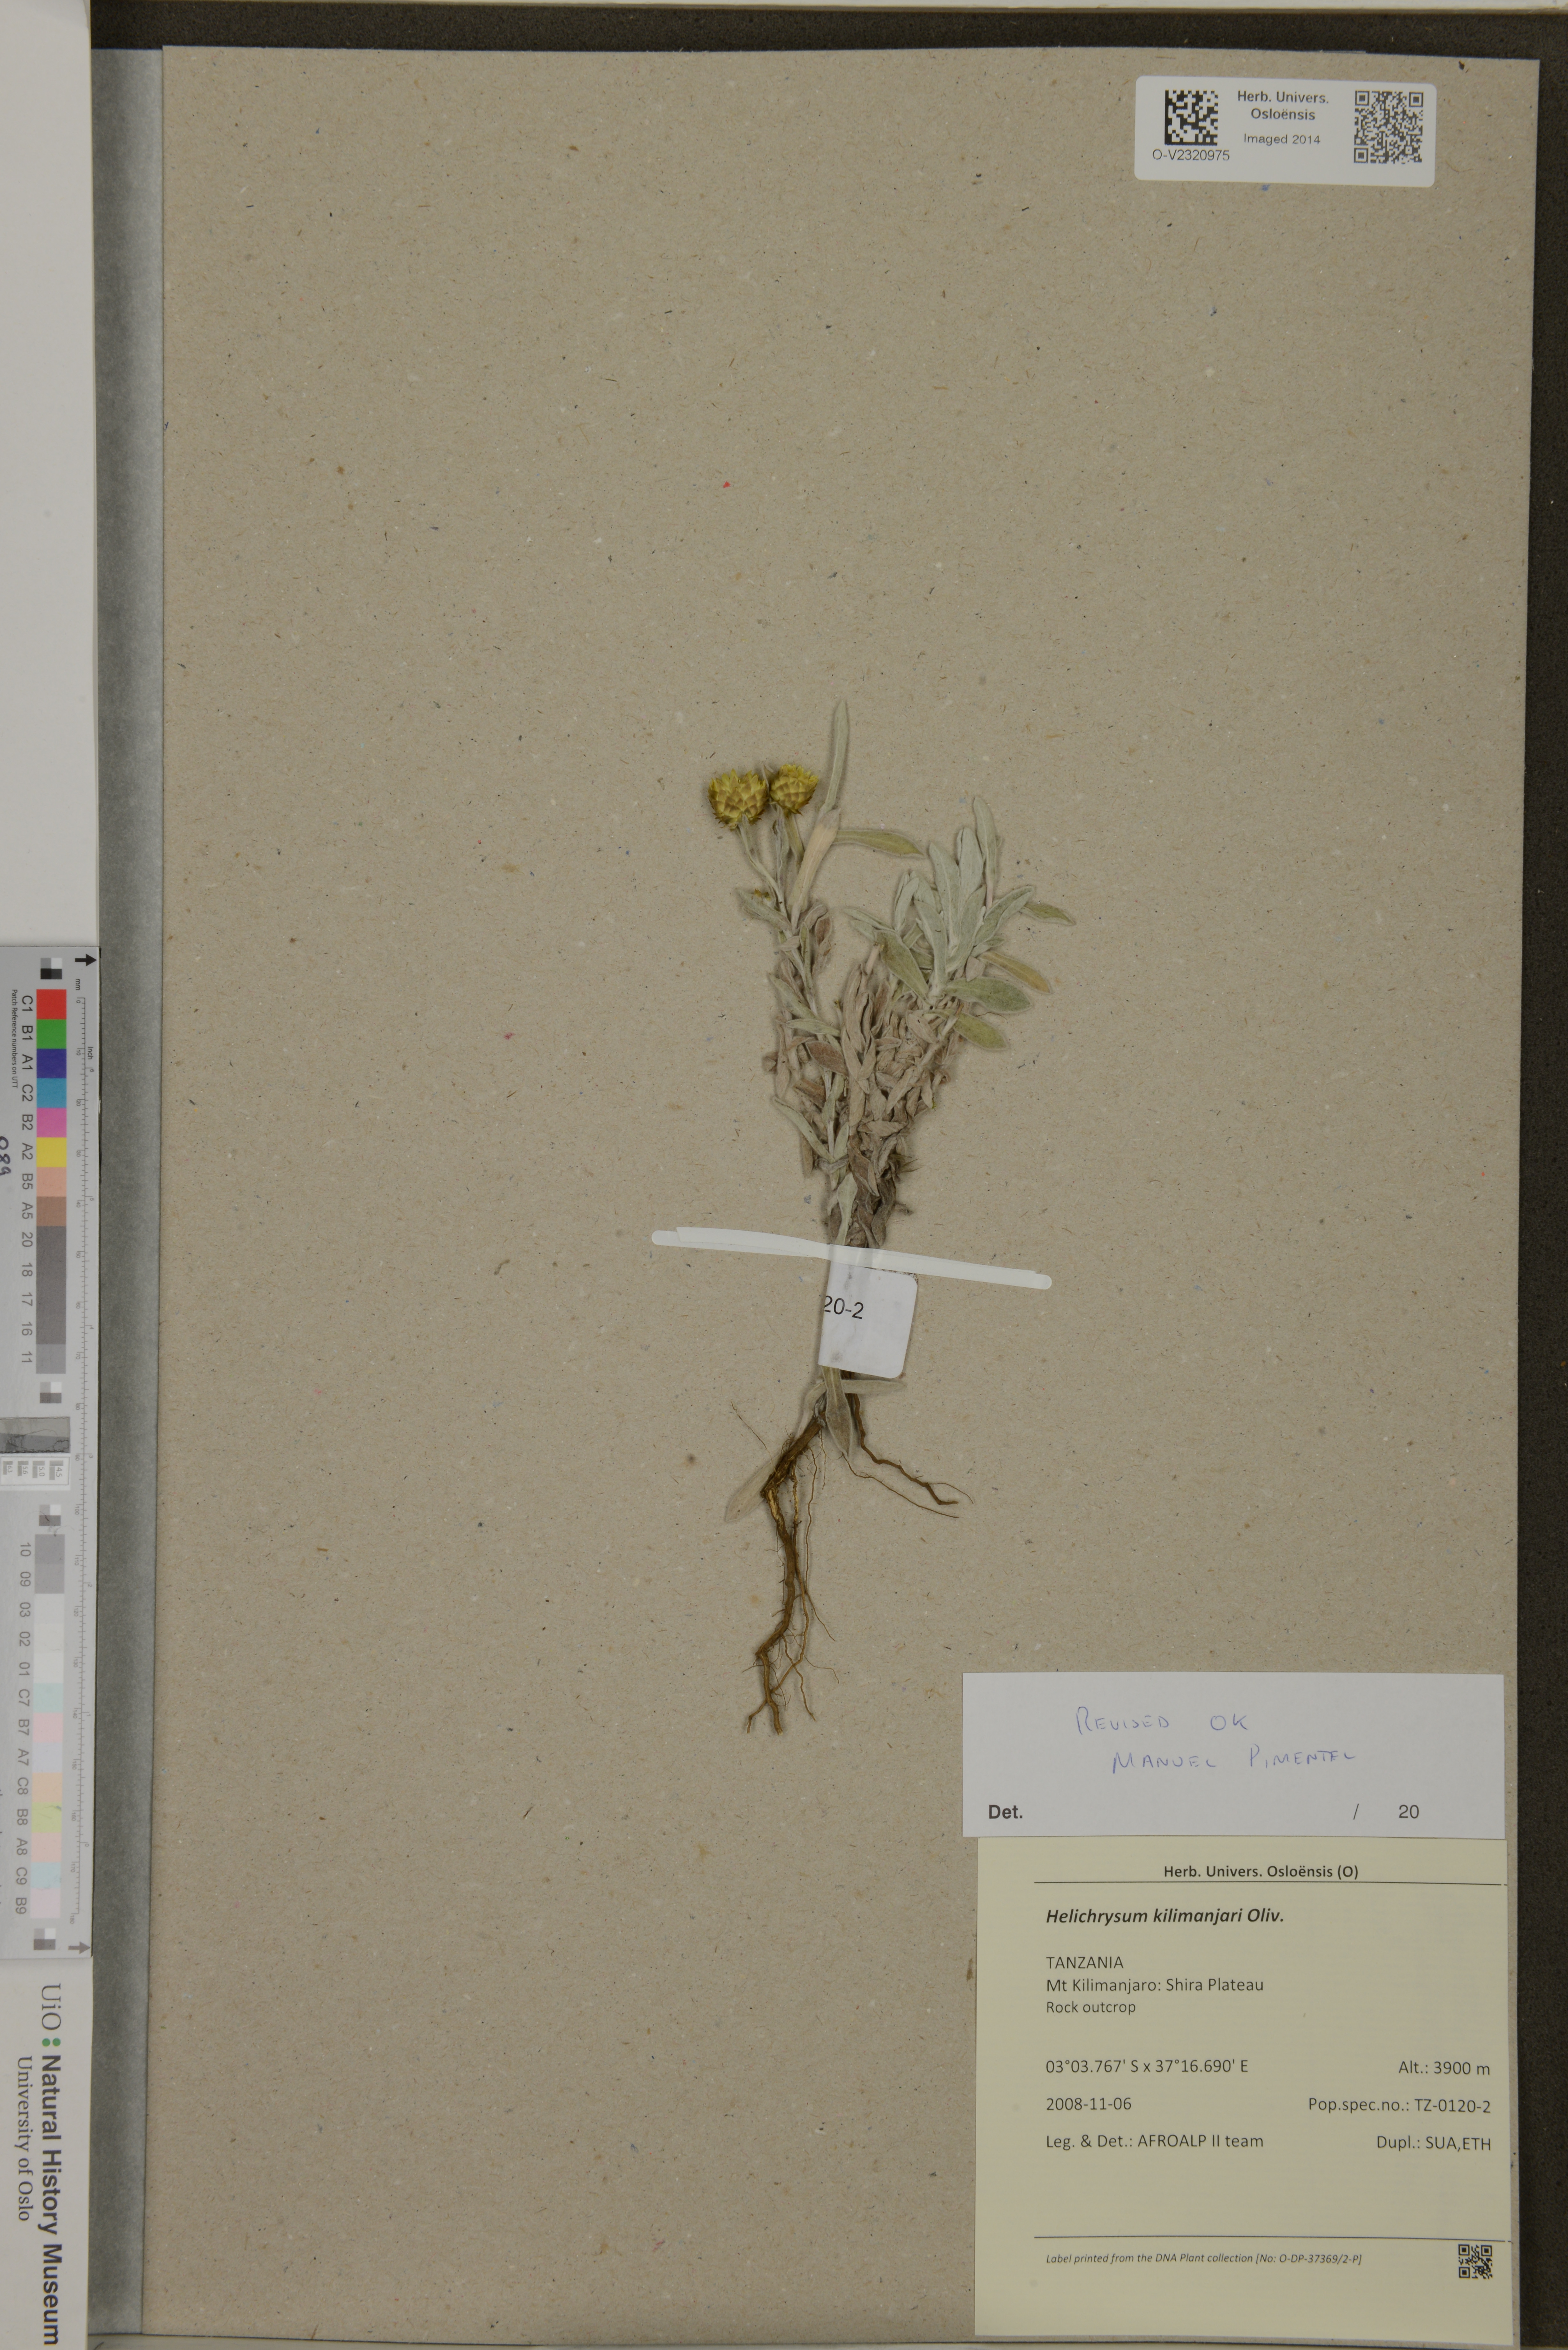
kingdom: Plantae
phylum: Tracheophyta
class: Magnoliopsida
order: Asterales
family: Asteraceae
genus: Helichrysum
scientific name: Helichrysum kilimanjari
